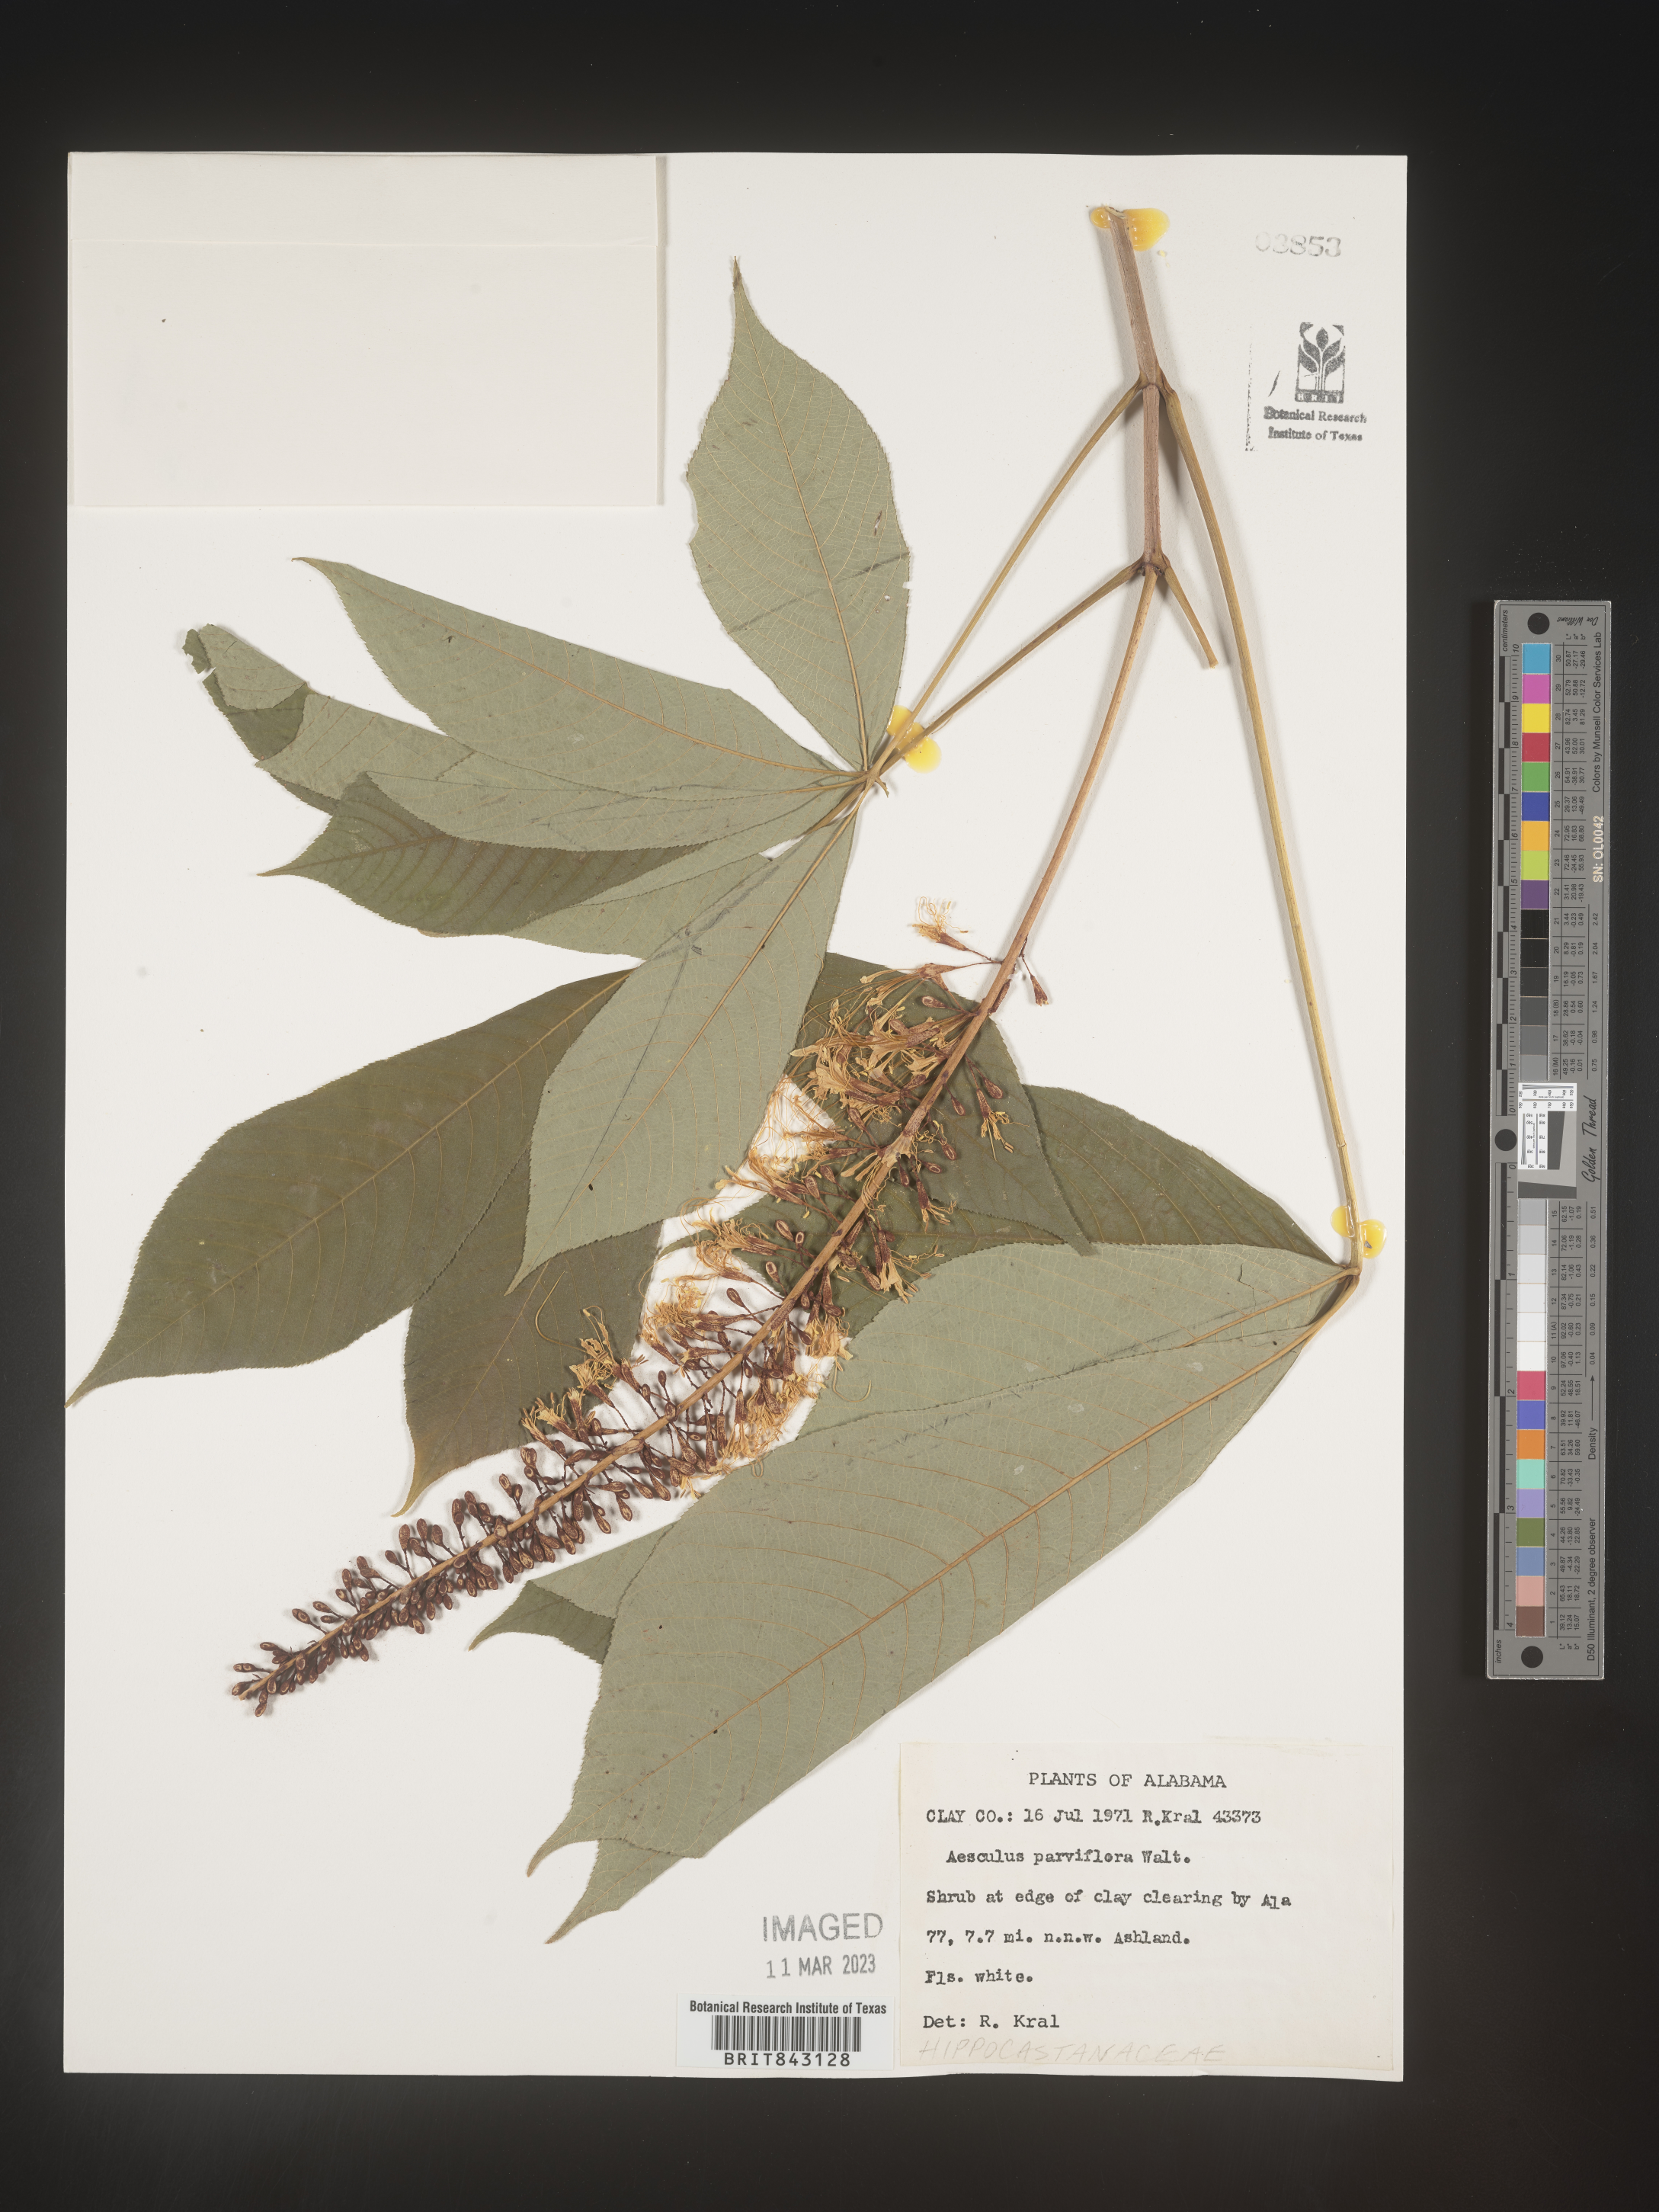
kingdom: Plantae
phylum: Tracheophyta
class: Magnoliopsida
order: Sapindales
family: Sapindaceae
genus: Aesculus
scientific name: Aesculus
